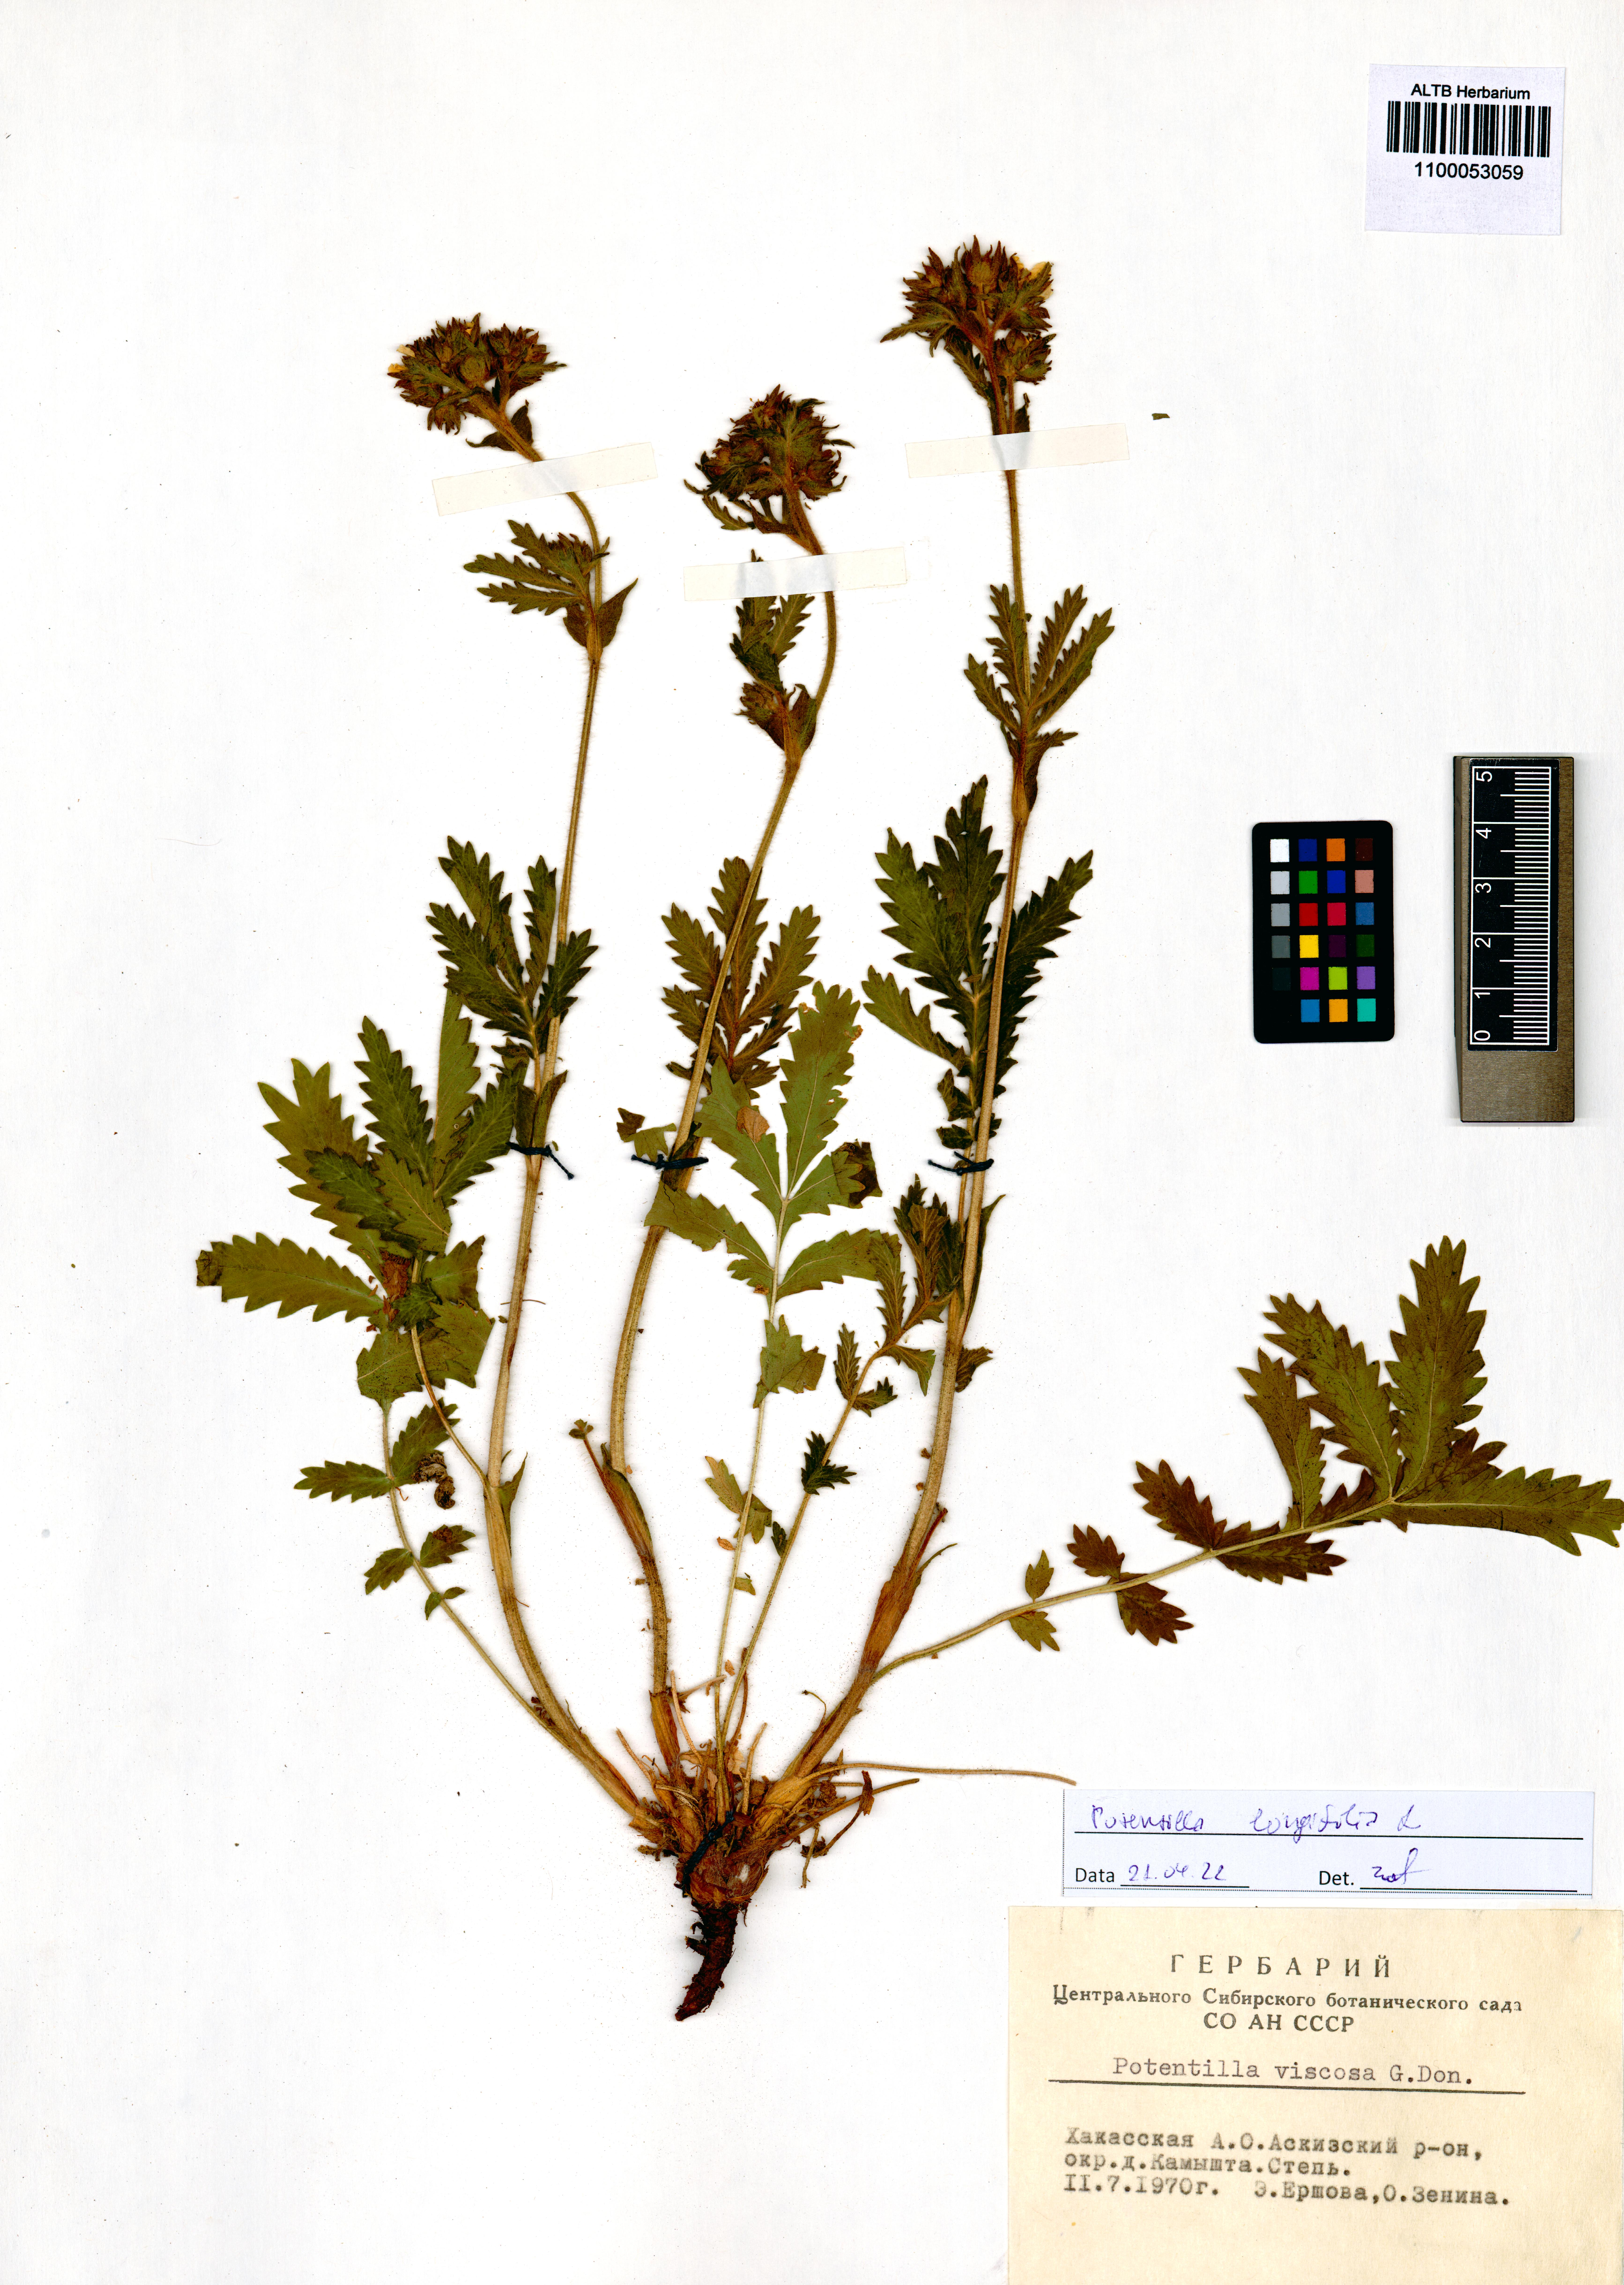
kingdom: Plantae
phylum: Tracheophyta
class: Magnoliopsida
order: Rosales
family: Rosaceae
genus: Potentilla
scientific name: Potentilla longifolia
